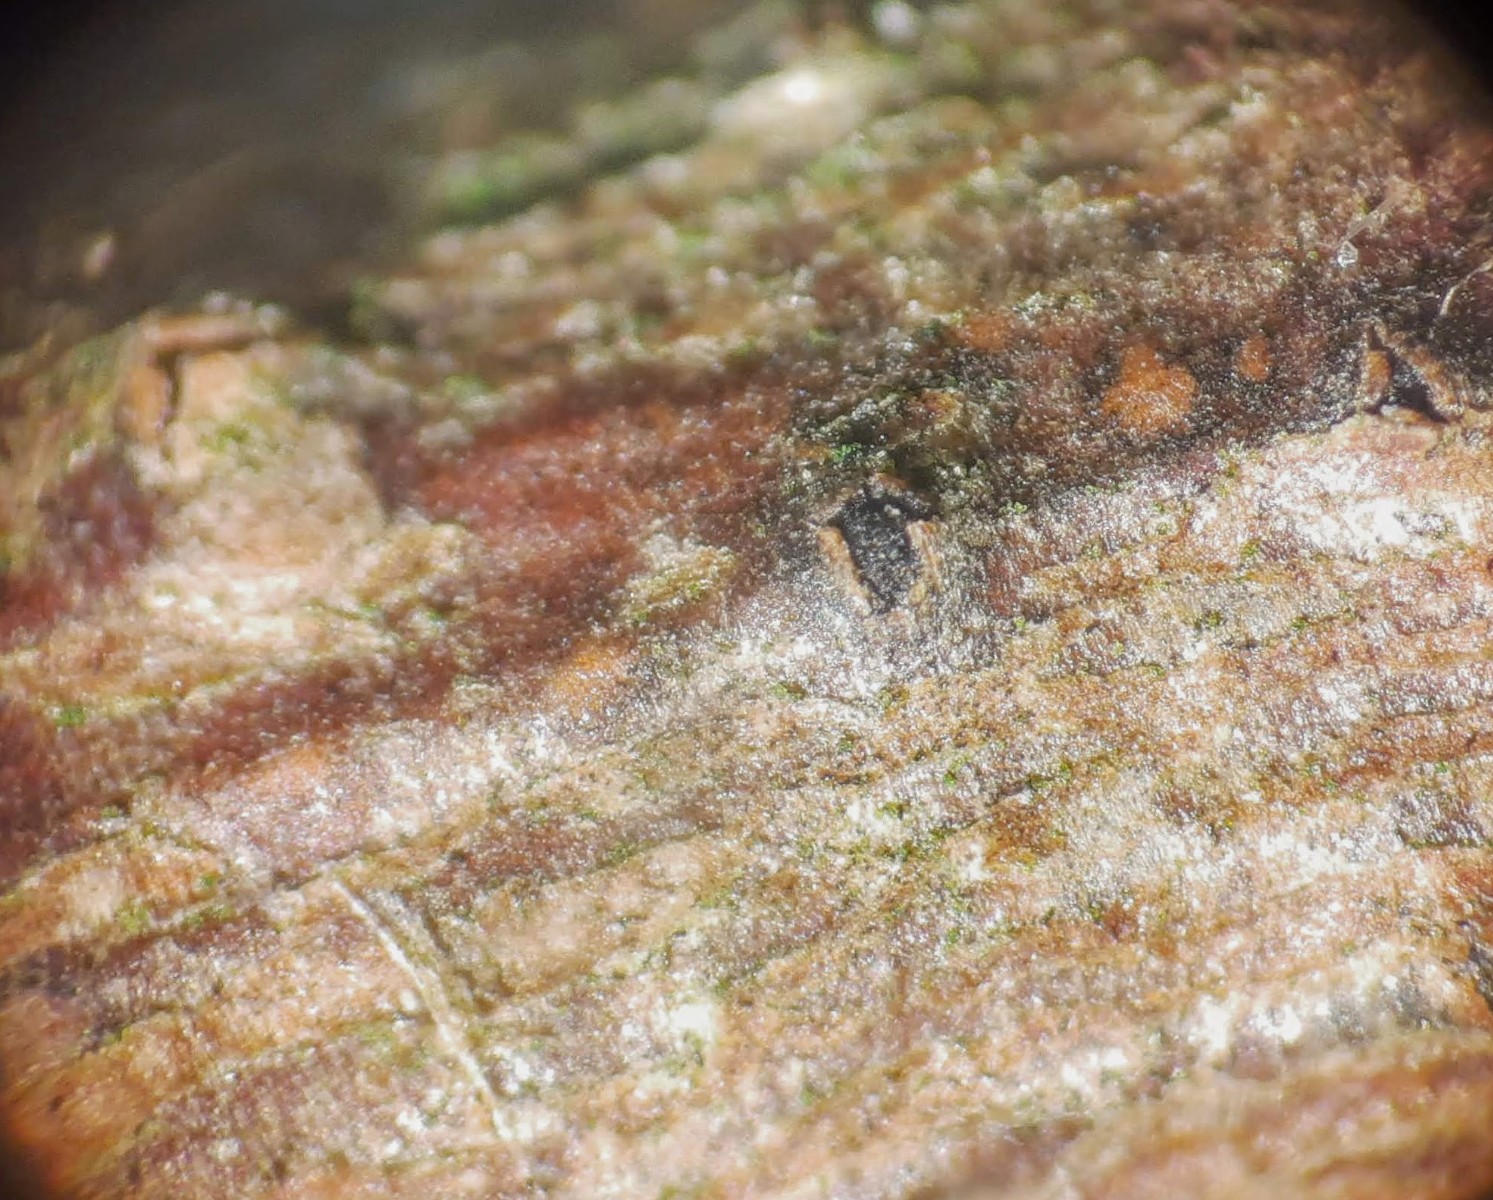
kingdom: Fungi
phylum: Ascomycota
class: Dothideomycetes
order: Botryosphaeriales
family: Botryosphaeriaceae
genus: Diplodia
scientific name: Diplodia salicina
